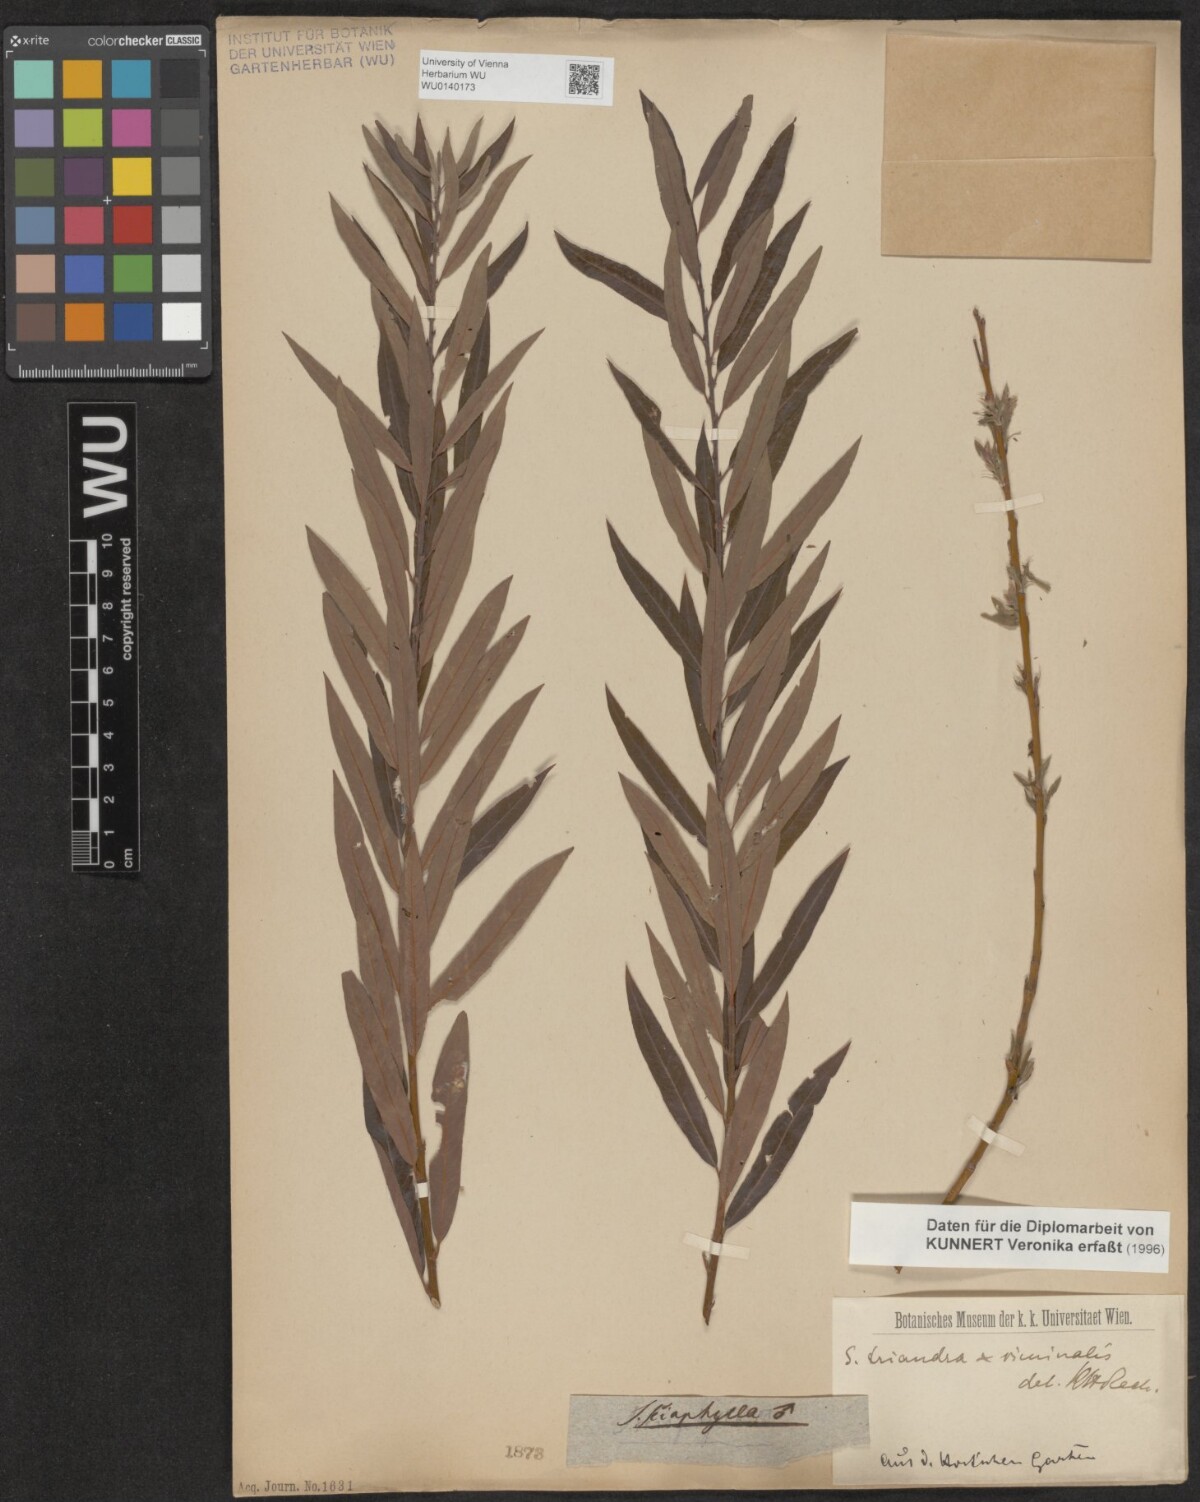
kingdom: Plantae
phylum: Tracheophyta
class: Magnoliopsida
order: Malpighiales
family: Salicaceae
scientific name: Salicaceae
